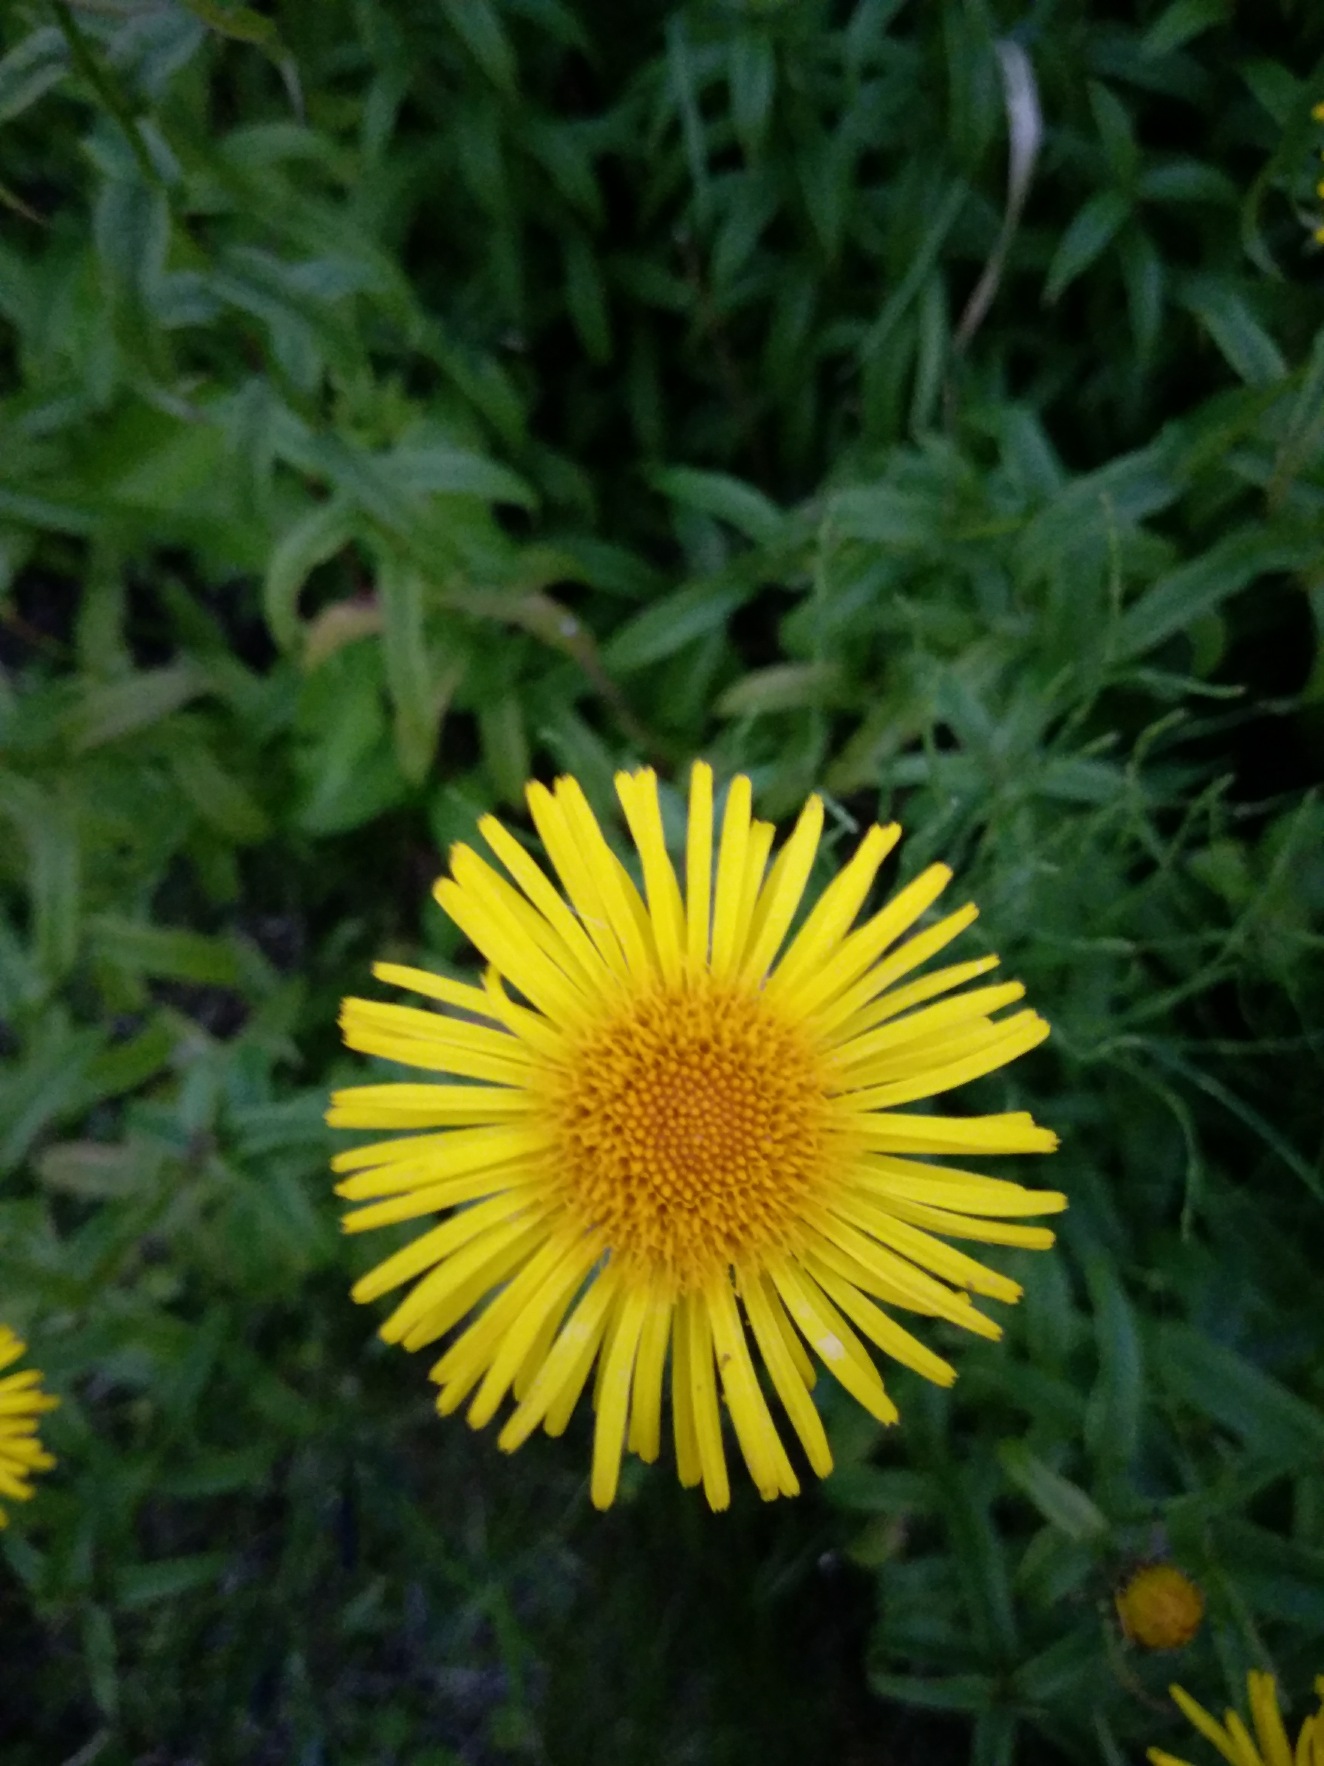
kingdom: Plantae
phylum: Tracheophyta
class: Magnoliopsida
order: Asterales
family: Asteraceae
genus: Pentanema
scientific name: Pentanema salicinum
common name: Pile-alant
